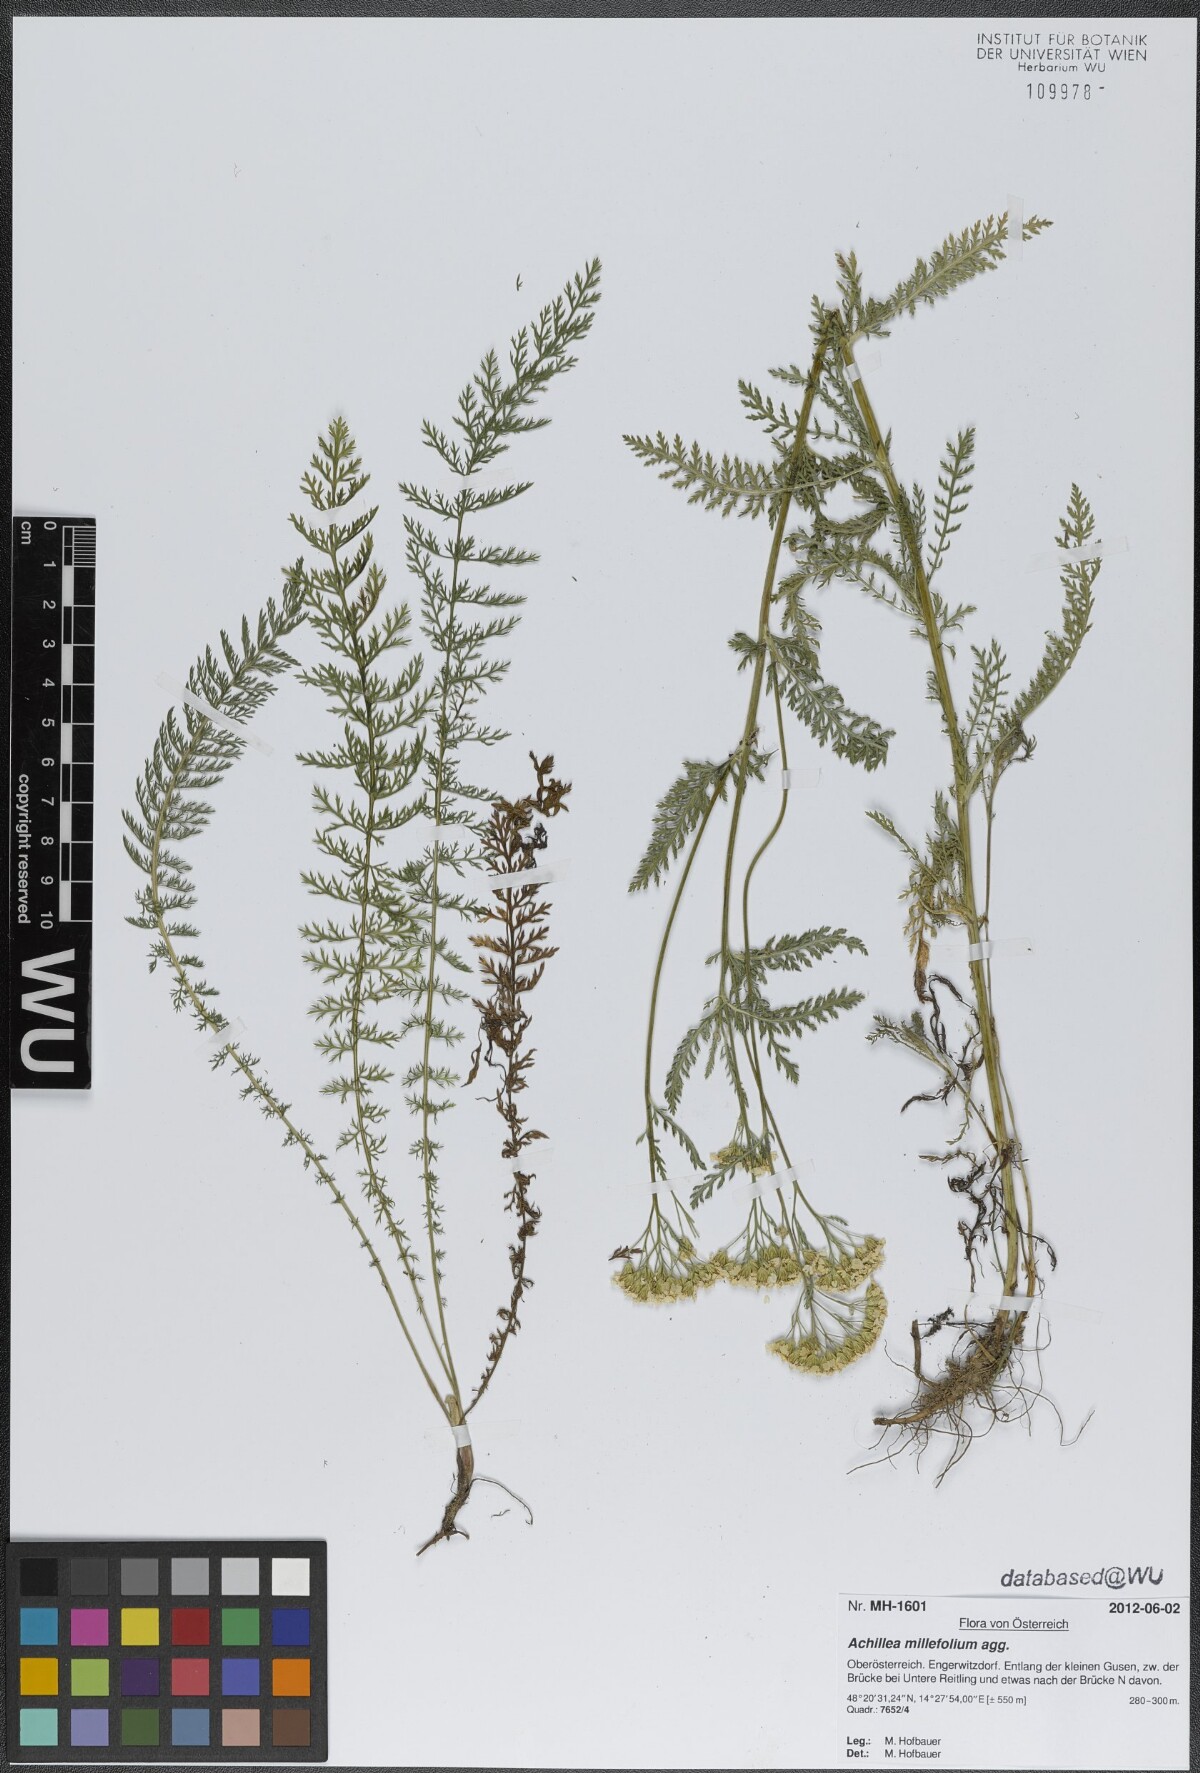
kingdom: Plantae
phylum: Tracheophyta
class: Magnoliopsida
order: Asterales
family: Asteraceae
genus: Achillea
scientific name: Achillea millefolium
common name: Yarrow
